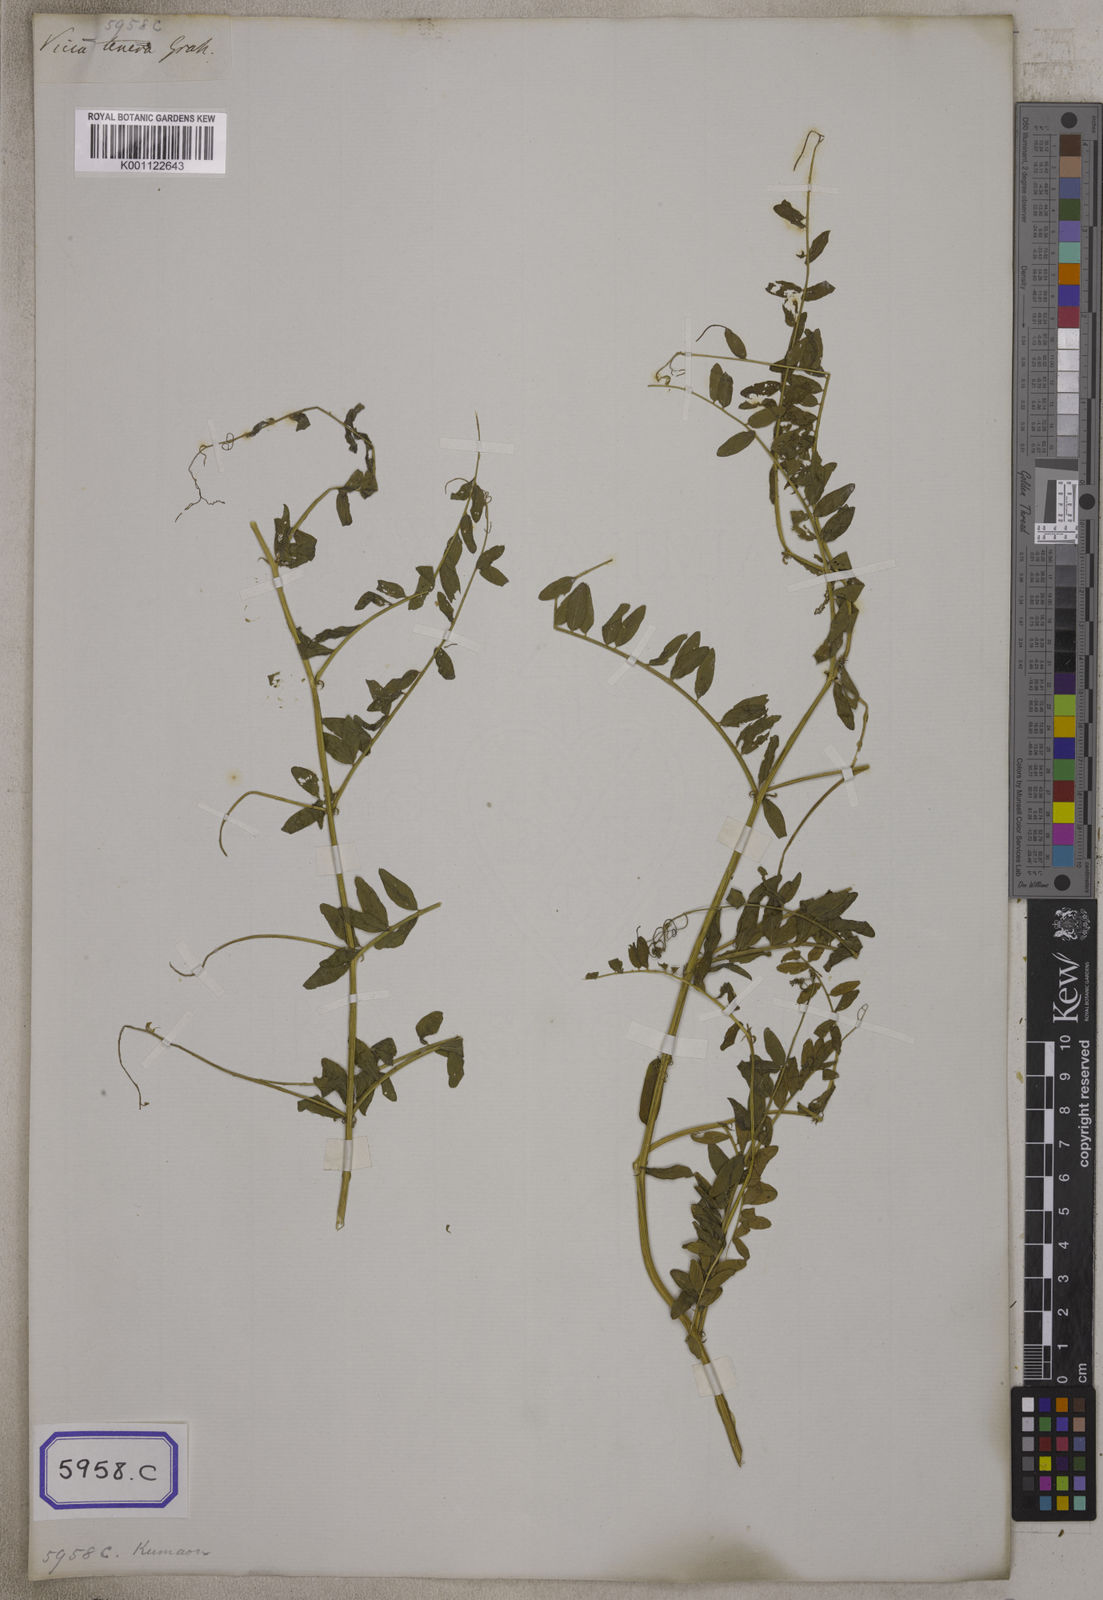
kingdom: Plantae
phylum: Tracheophyta
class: Magnoliopsida
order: Fabales
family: Fabaceae
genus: Vicia
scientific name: Vicia
